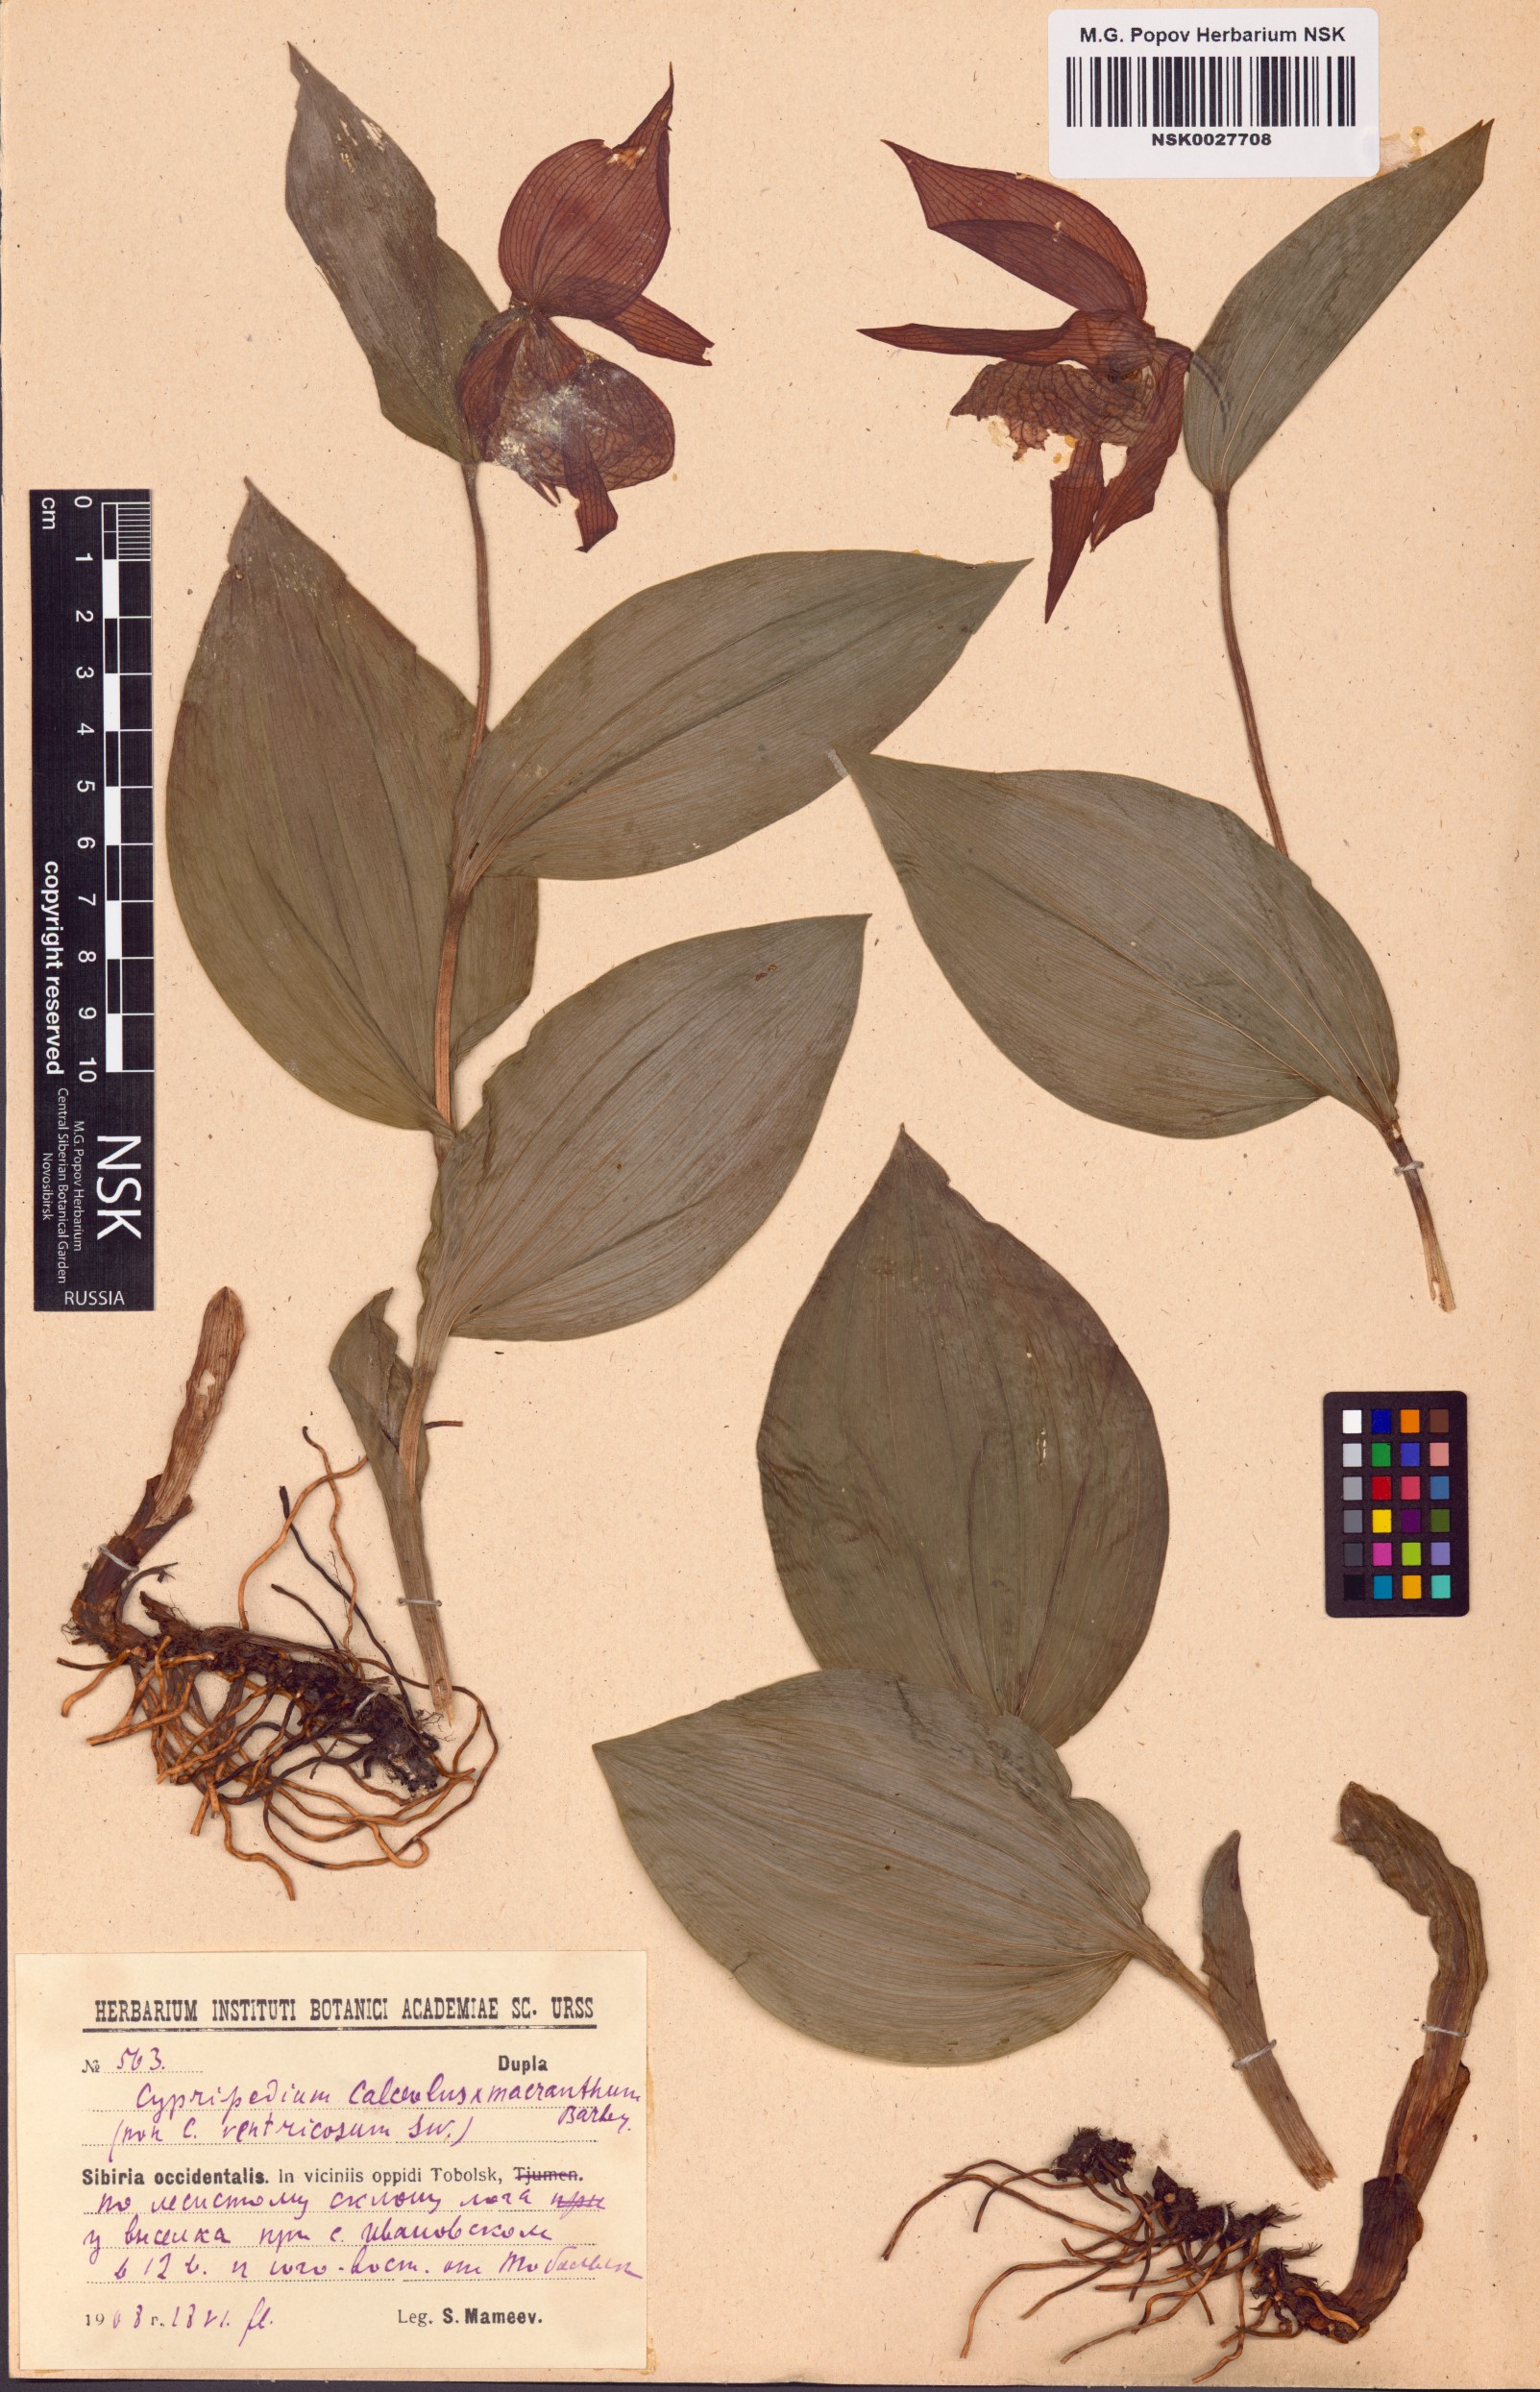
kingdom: Plantae
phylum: Tracheophyta
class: Liliopsida
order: Asparagales
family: Orchidaceae
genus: Cypripedium
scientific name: Cypripedium calceolus
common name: Lady's-slipper
